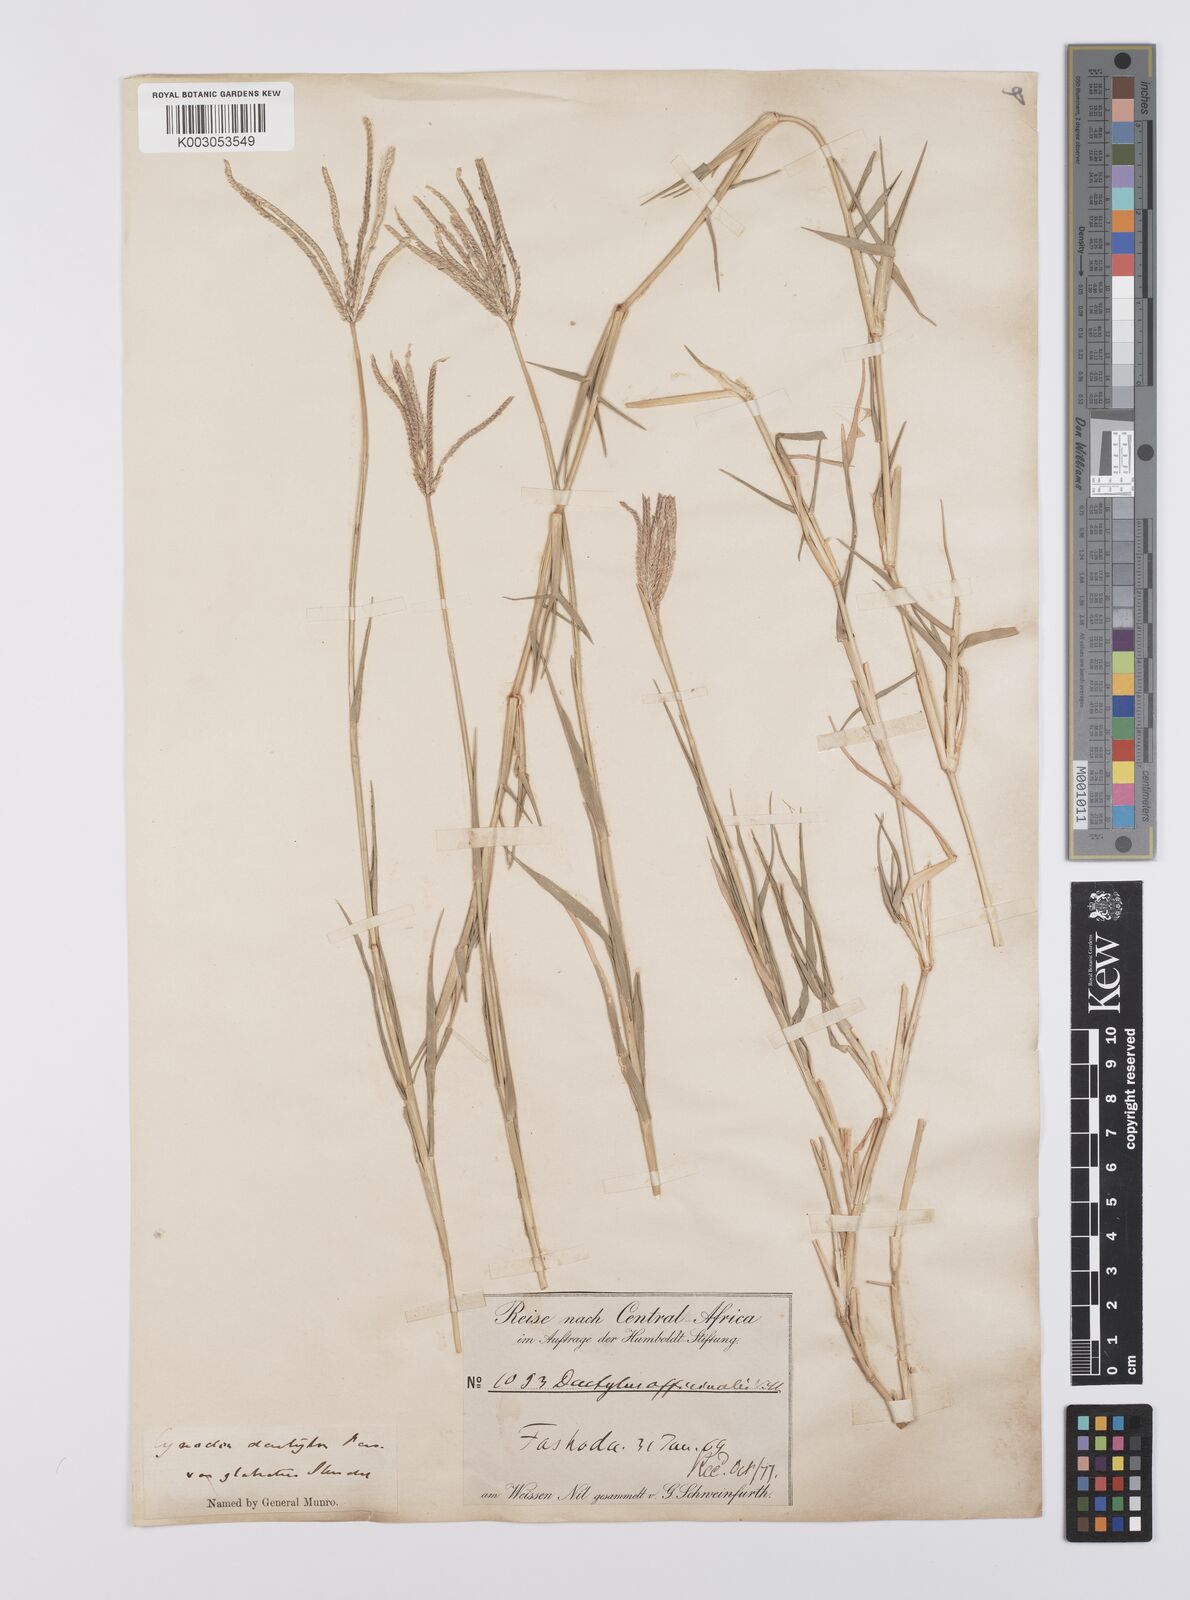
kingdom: Plantae
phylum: Tracheophyta
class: Liliopsida
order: Poales
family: Poaceae
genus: Cynodon
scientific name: Cynodon dactylon
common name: Bermuda grass
